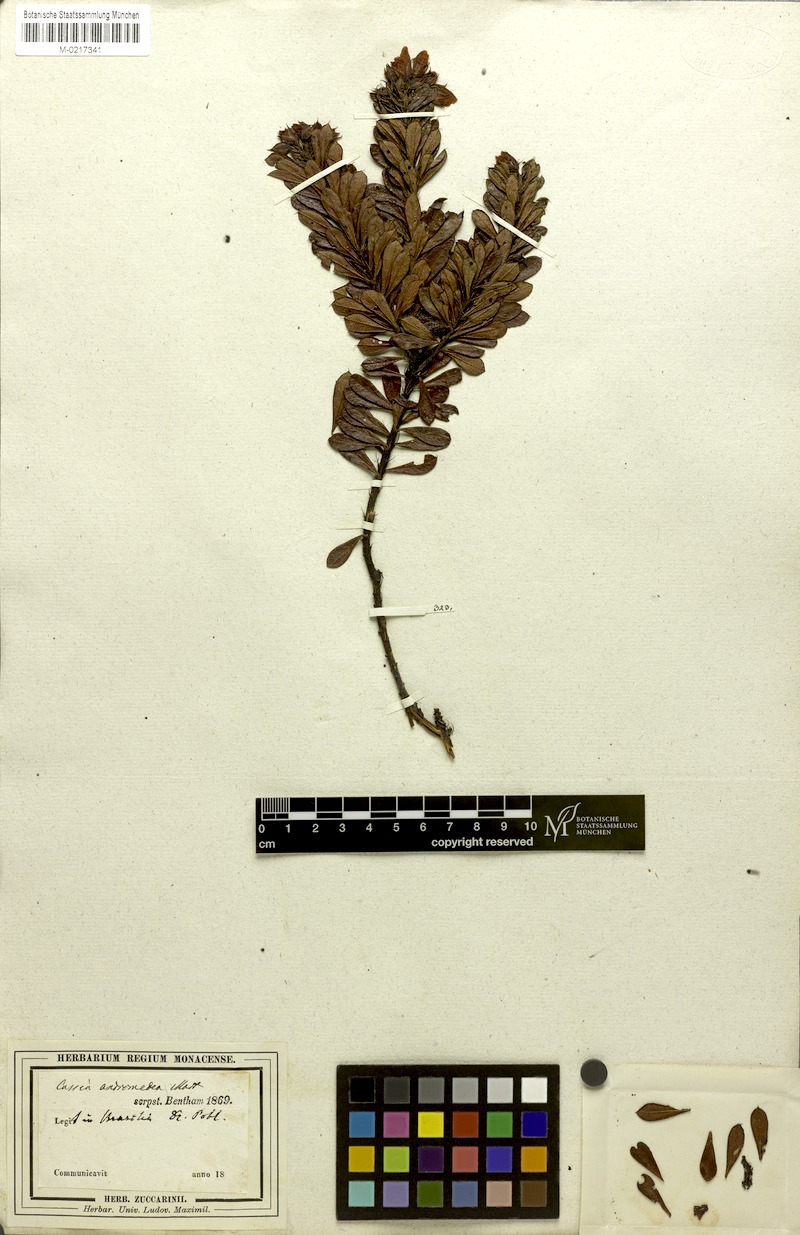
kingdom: Plantae
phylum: Tracheophyta
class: Magnoliopsida
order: Fabales
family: Fabaceae
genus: Chamaecrista
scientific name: Chamaecrista andromedea
